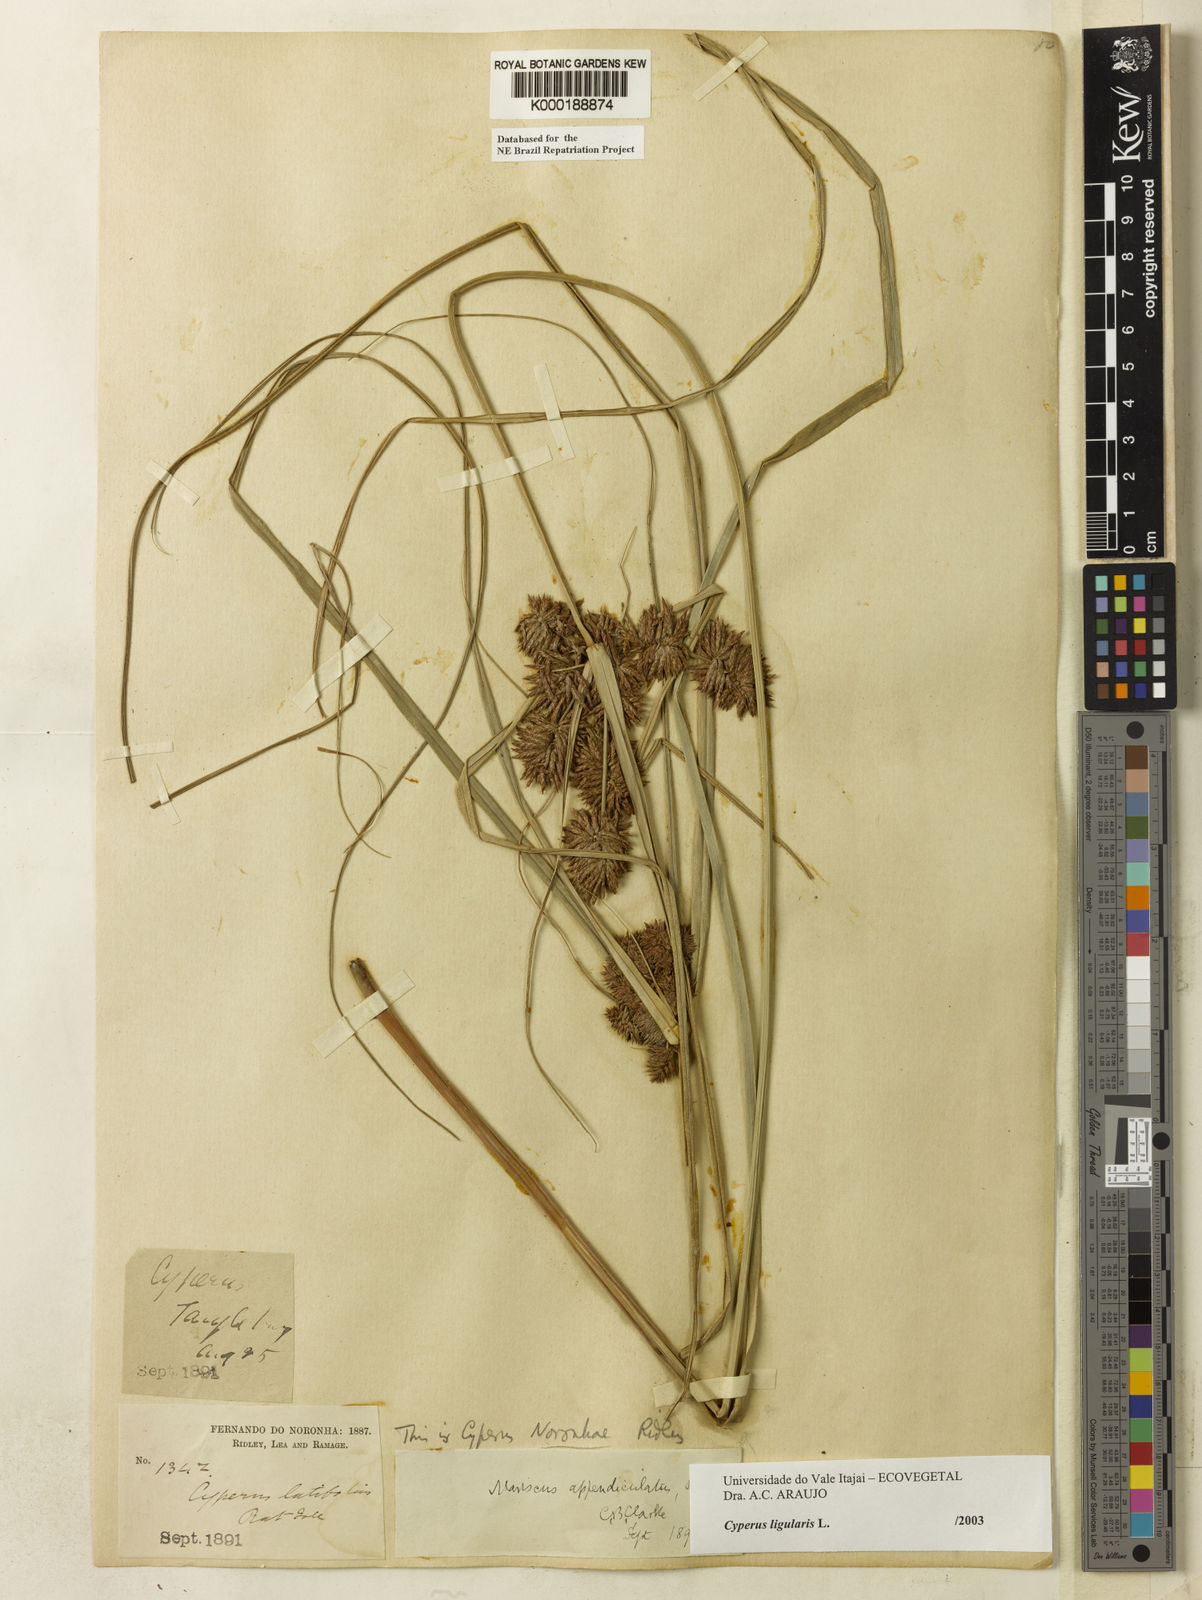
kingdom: Plantae
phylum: Tracheophyta
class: Liliopsida
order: Poales
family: Cyperaceae
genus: Cyperus
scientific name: Cyperus ligularis
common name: Swamp flat sedge
